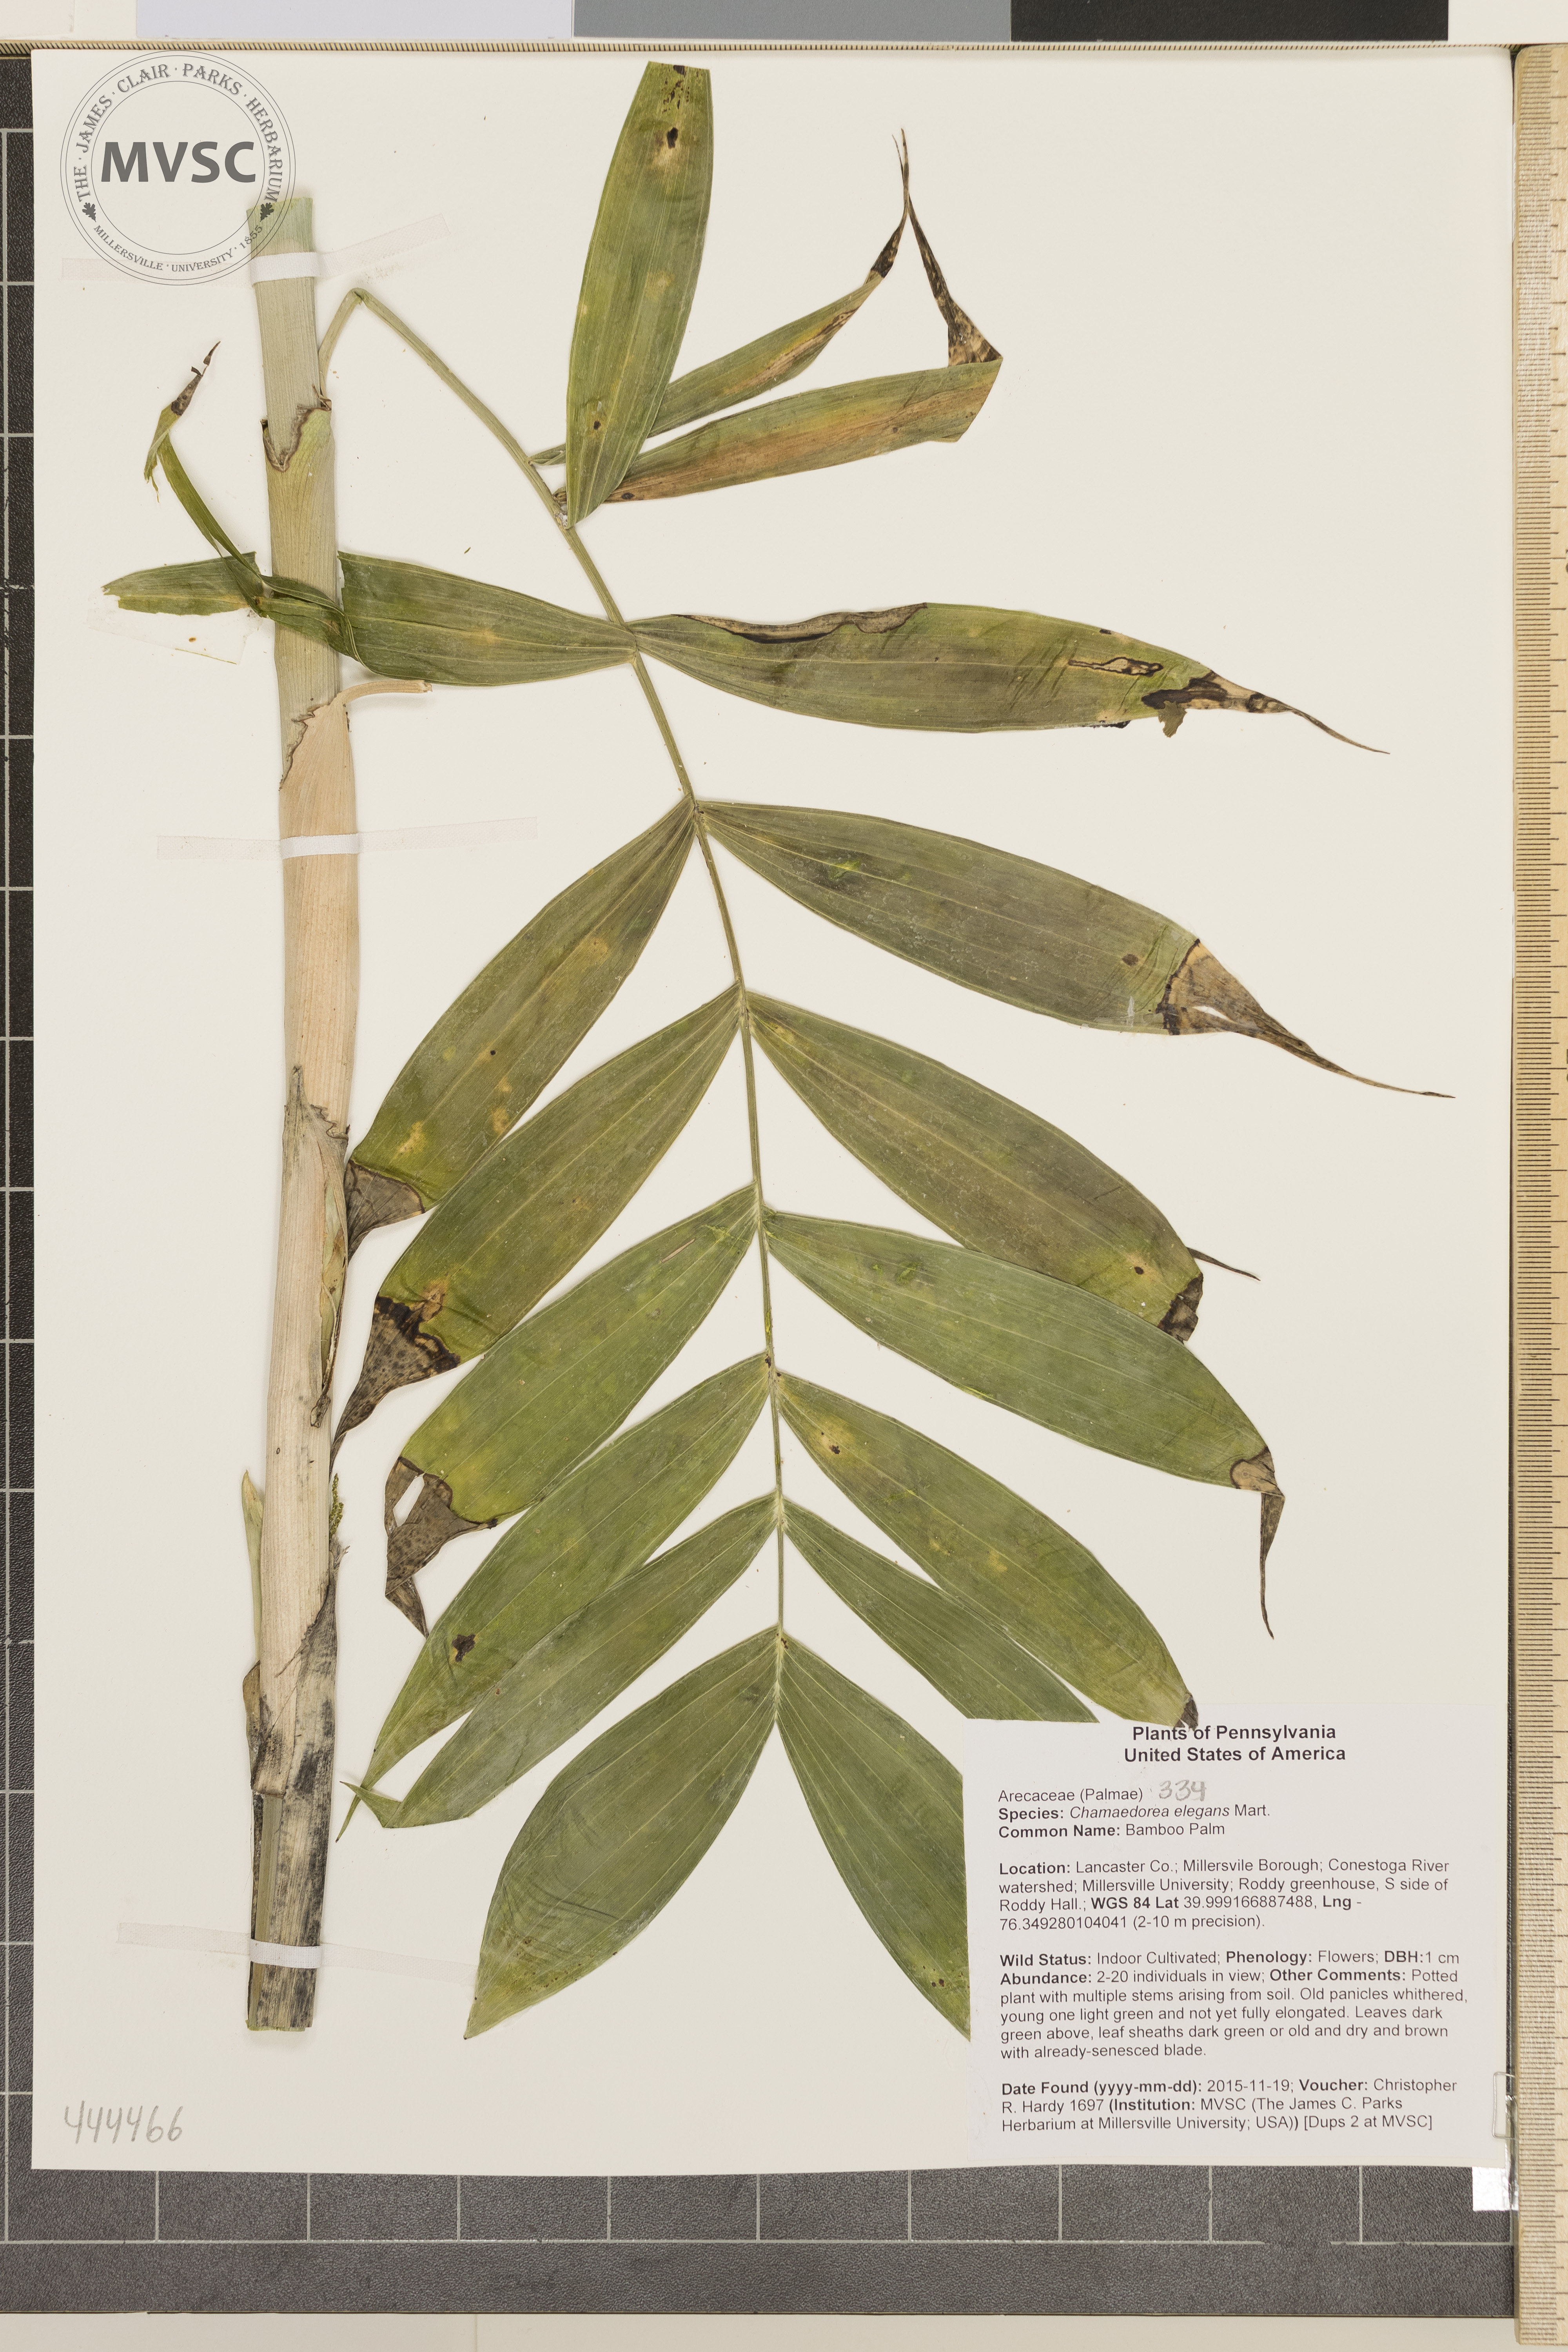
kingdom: Plantae
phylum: Tracheophyta
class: Liliopsida
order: Arecales
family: Arecaceae
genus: Chamaedorea
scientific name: Chamaedorea elegans
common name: Bamboo Palm
